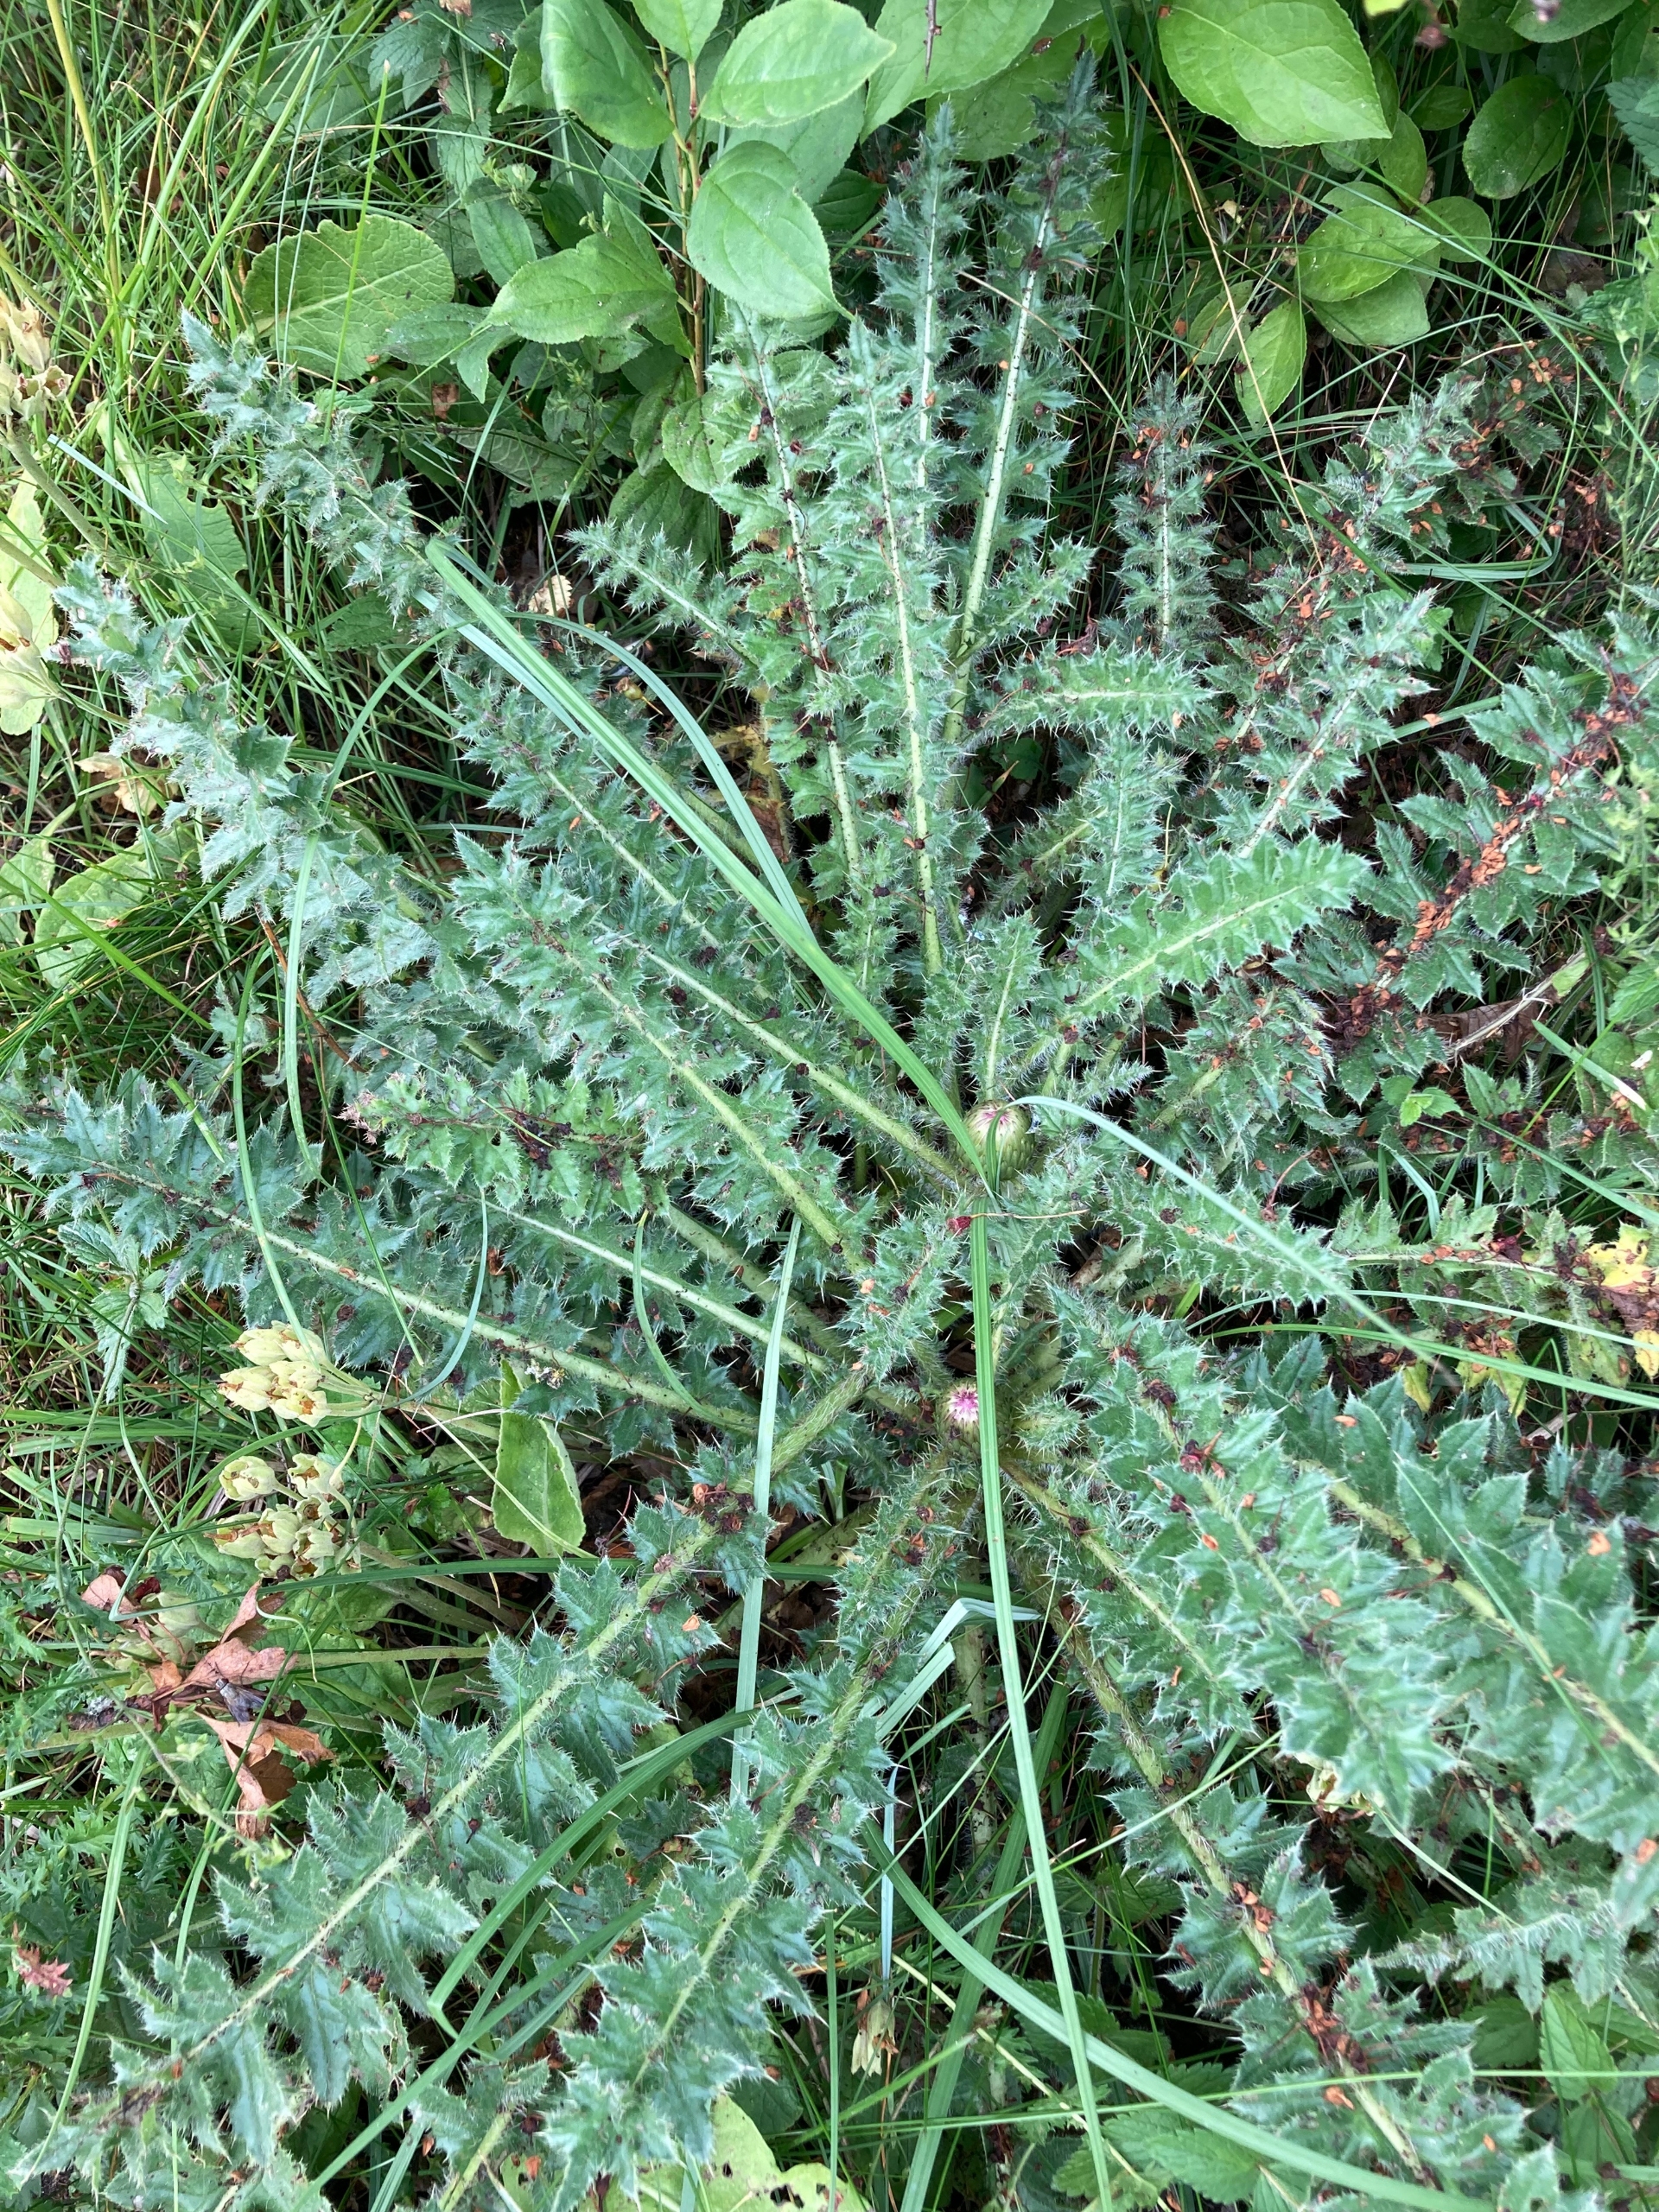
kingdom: Plantae
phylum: Tracheophyta
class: Magnoliopsida
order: Asterales
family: Asteraceae
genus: Cirsium
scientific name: Cirsium acaule
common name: Lav tidsel
